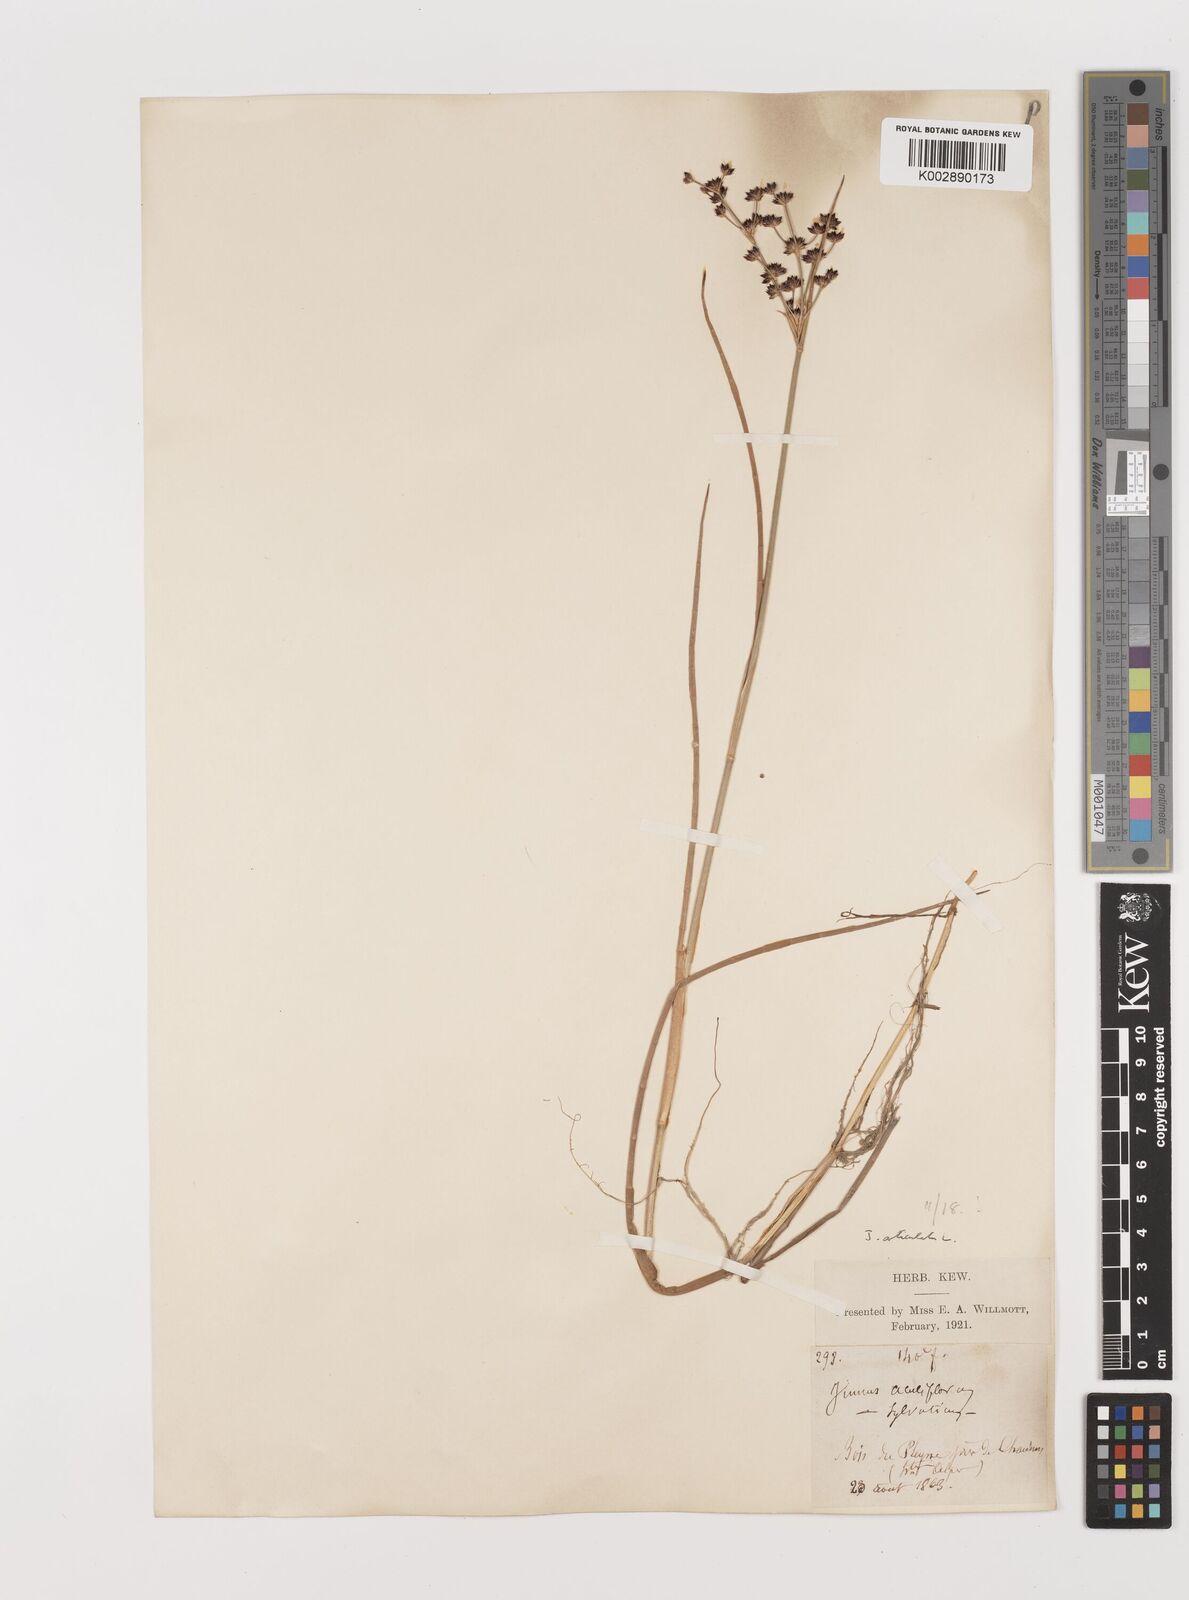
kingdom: Plantae
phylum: Tracheophyta
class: Liliopsida
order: Poales
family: Juncaceae
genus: Juncus
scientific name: Juncus articulatus
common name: Jointed rush
